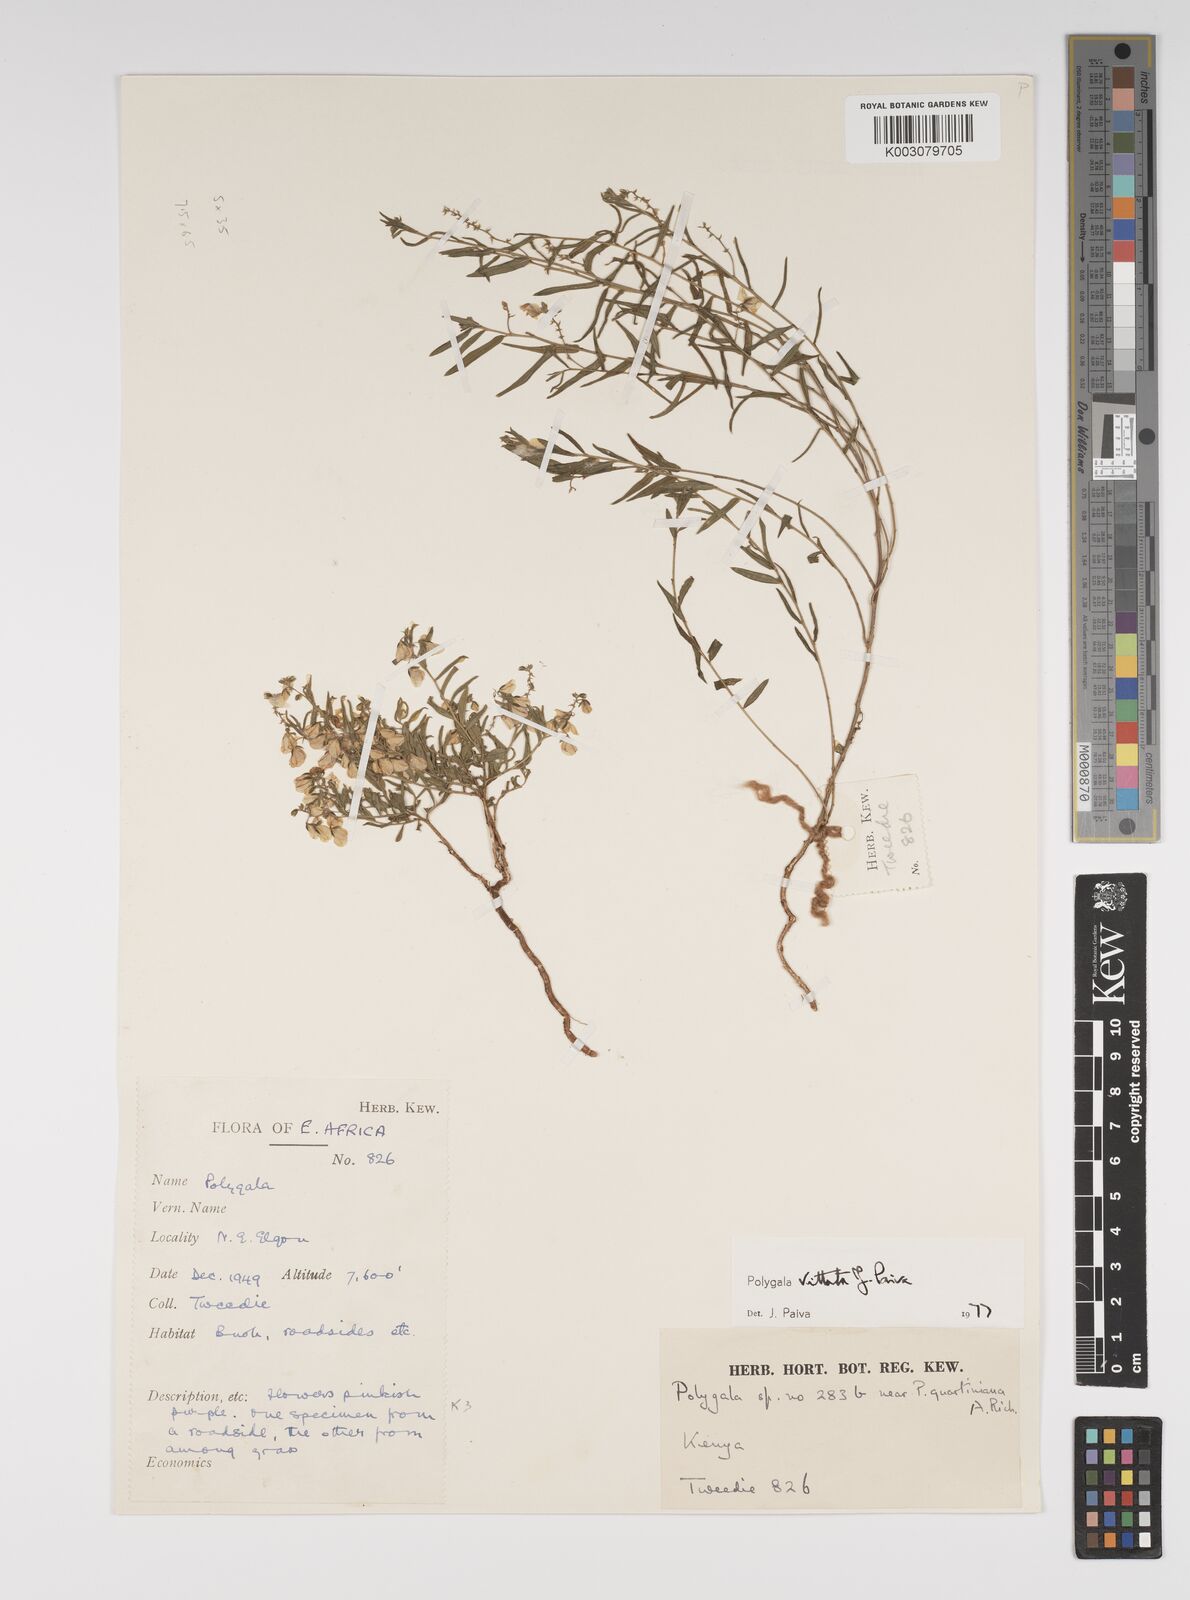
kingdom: Plantae
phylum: Tracheophyta
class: Magnoliopsida
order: Fabales
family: Polygalaceae
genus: Polygala
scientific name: Polygala vittata
